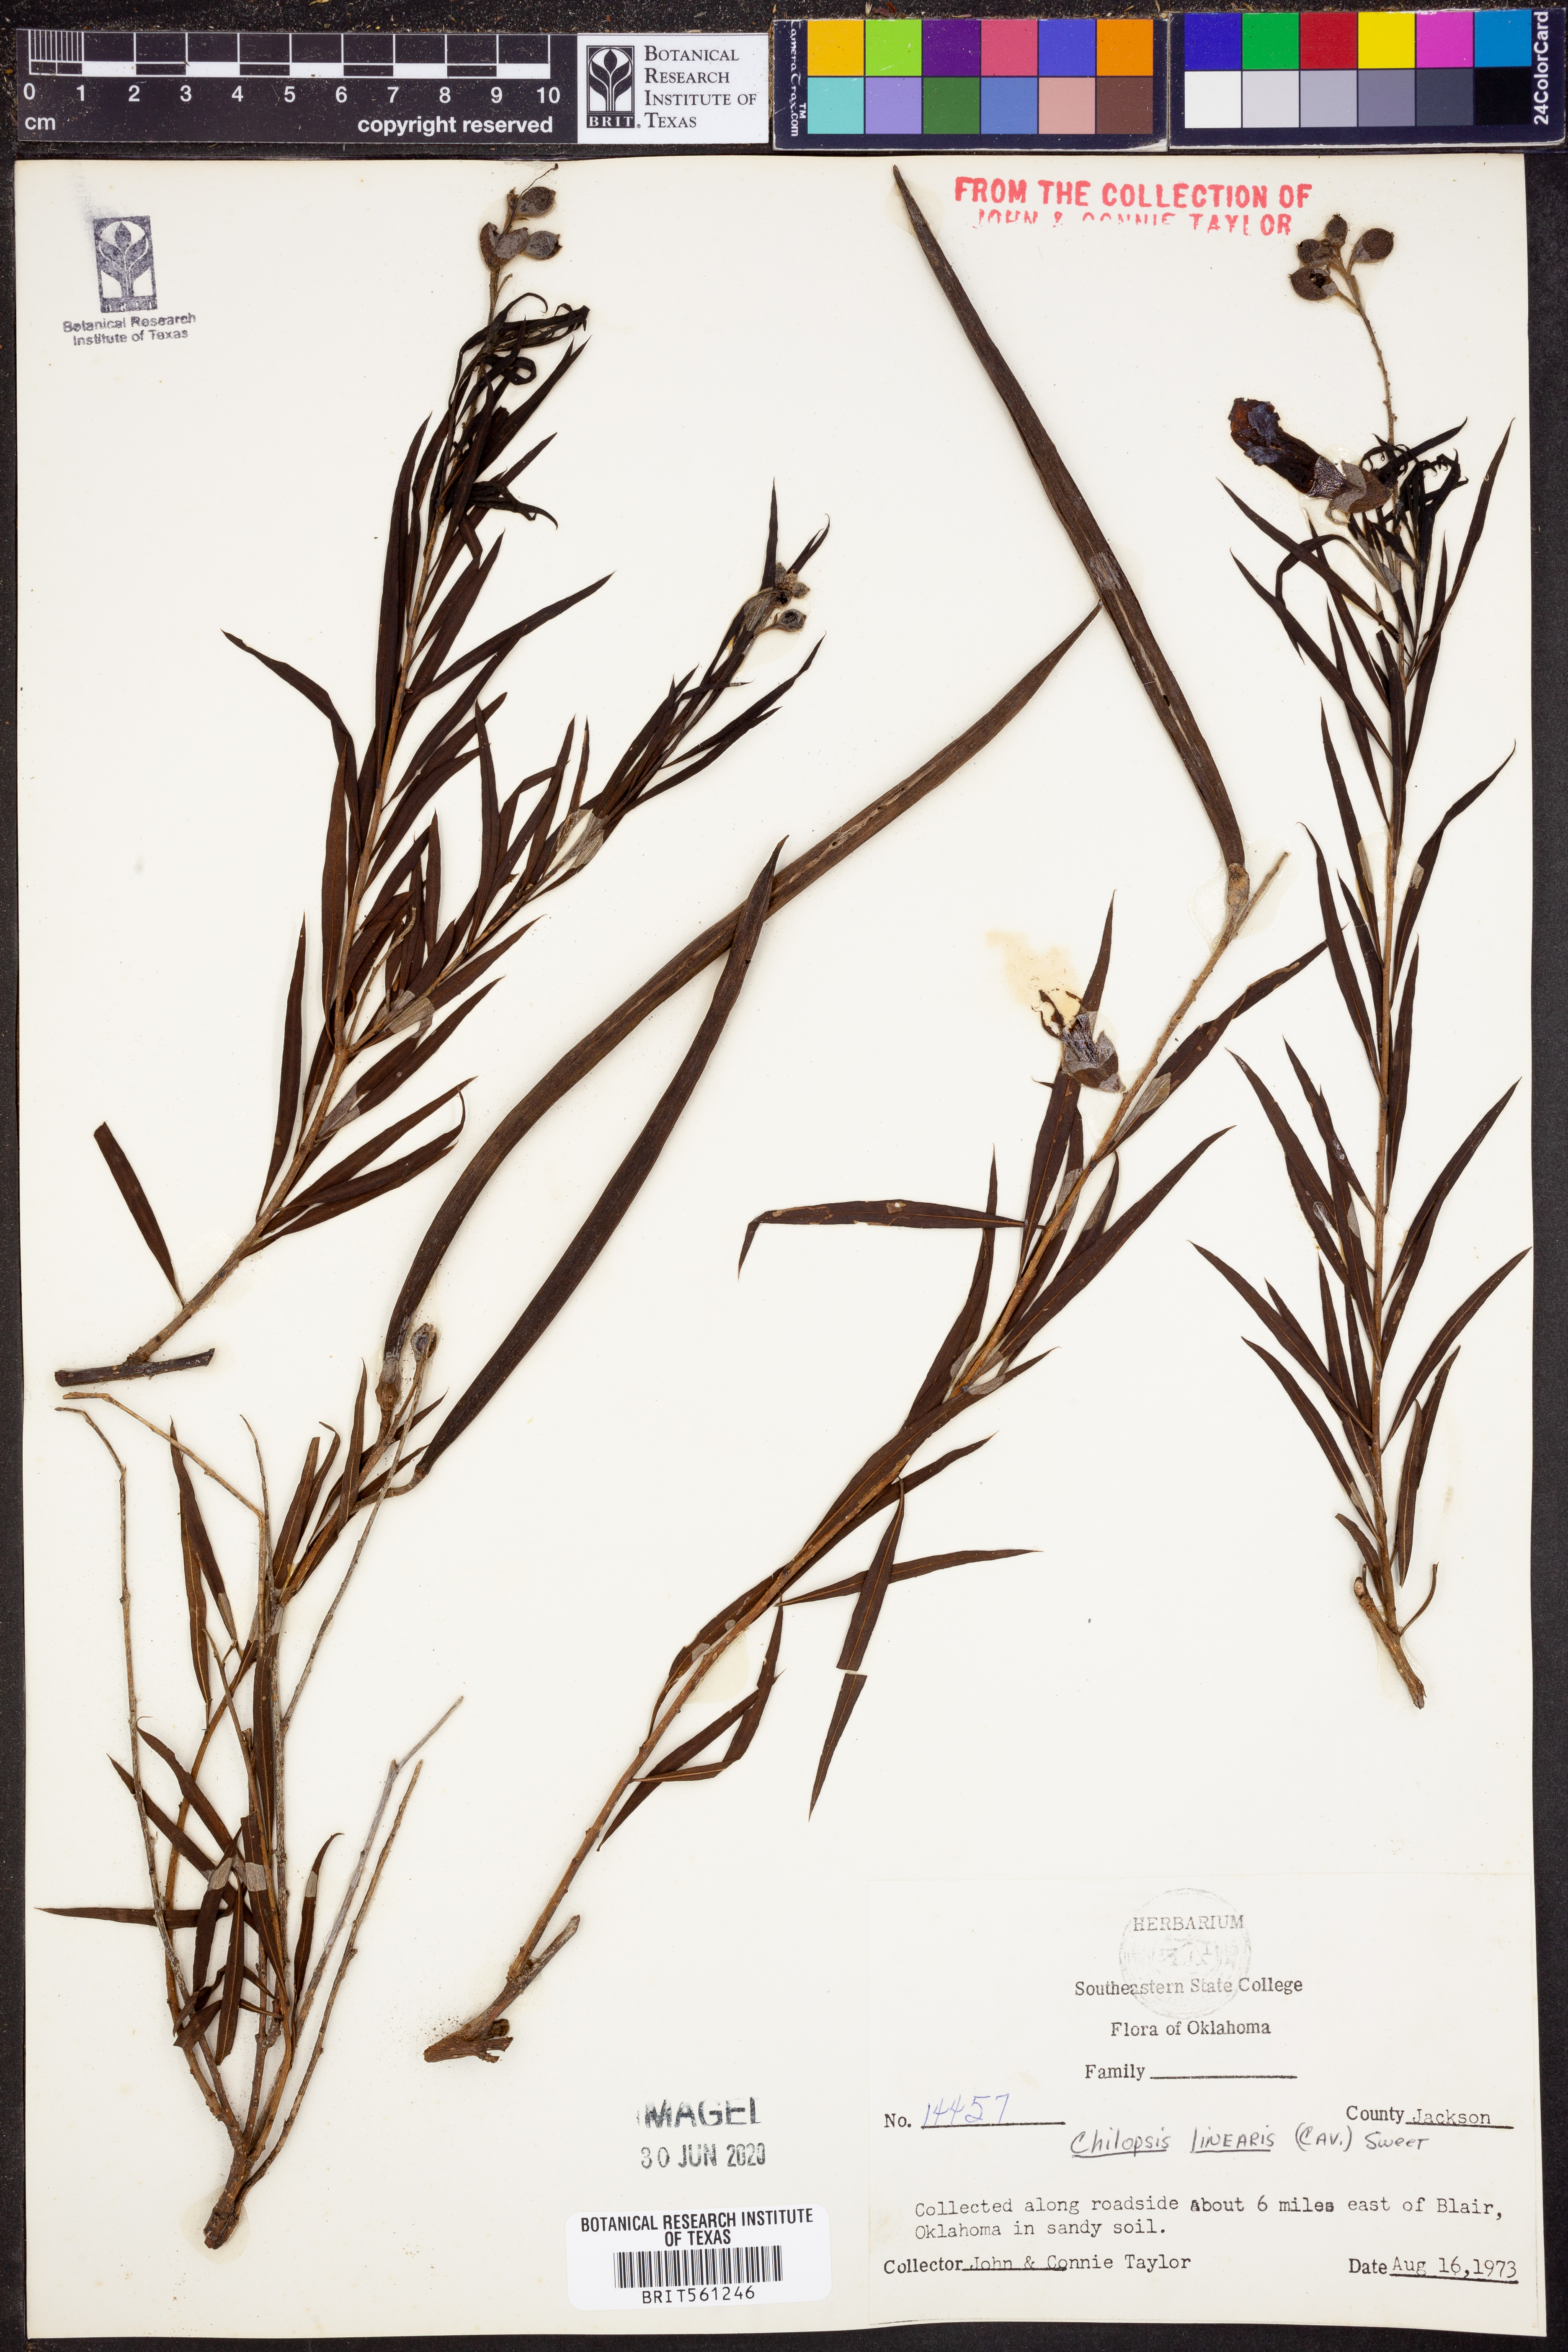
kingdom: Plantae
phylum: Tracheophyta
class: Magnoliopsida
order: Lamiales
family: Bignoniaceae
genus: Chilopsis
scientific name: Chilopsis linearis
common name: Desert-willow
